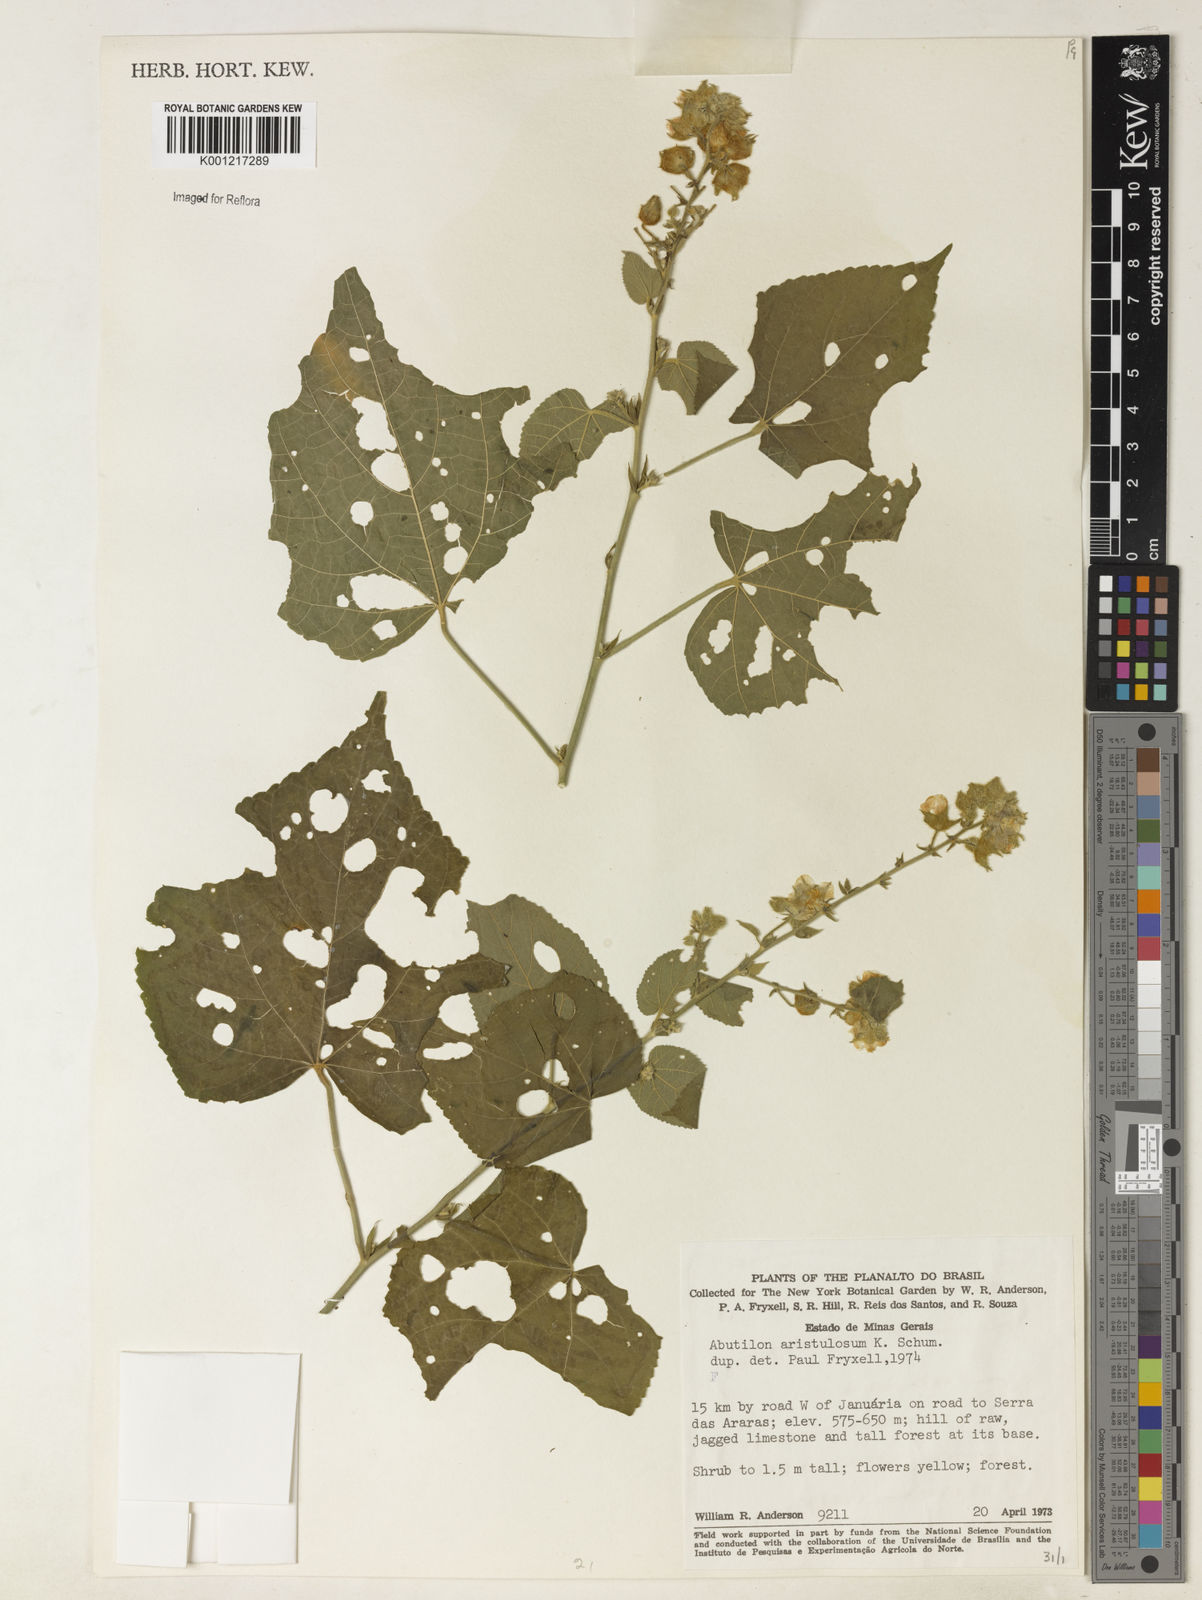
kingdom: Plantae
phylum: Tracheophyta
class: Magnoliopsida
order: Malvales
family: Malvaceae
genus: Pseudabutilon
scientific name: Pseudabutilon aristulosum
